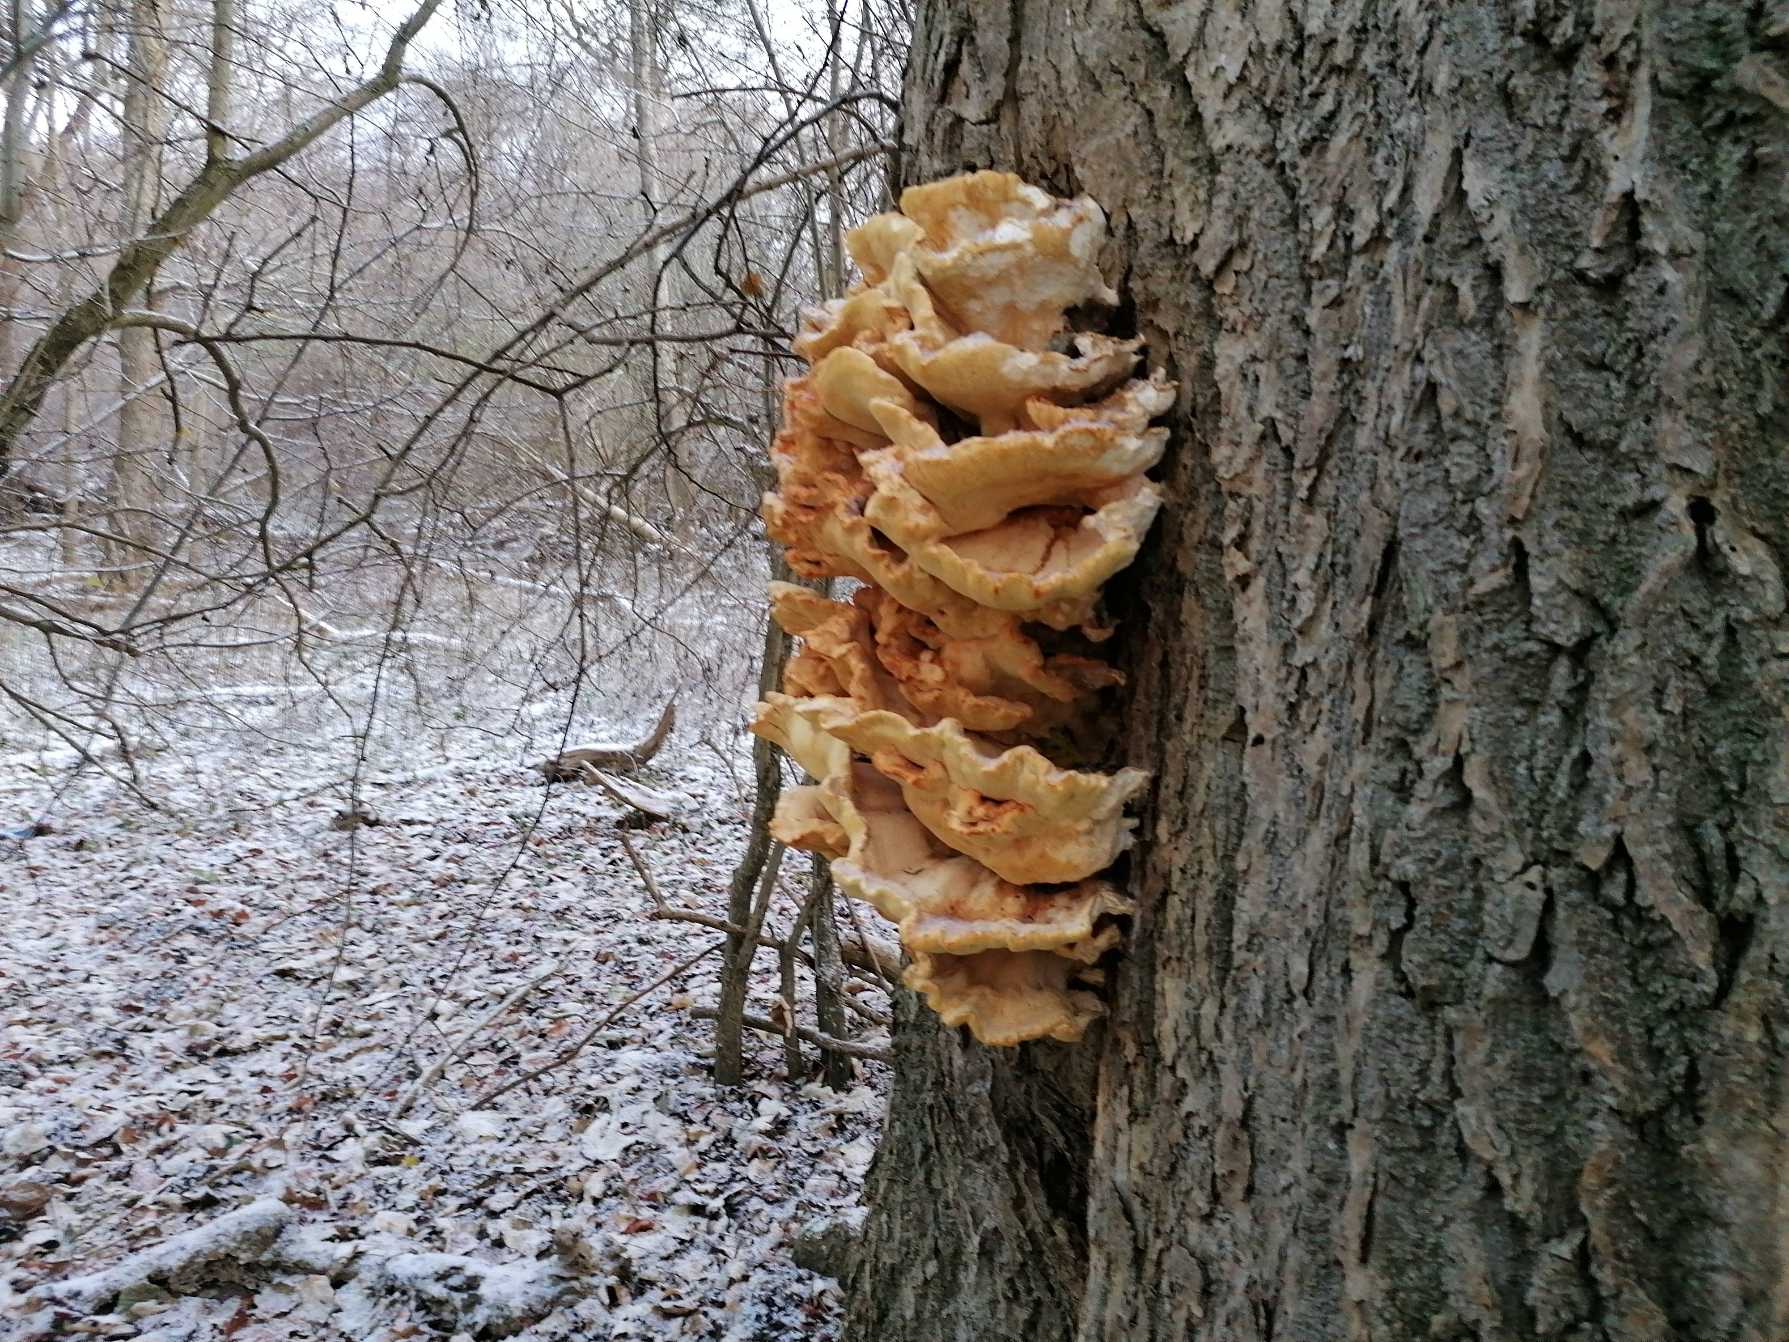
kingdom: Fungi
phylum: Basidiomycota
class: Agaricomycetes
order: Polyporales
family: Laetiporaceae
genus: Laetiporus
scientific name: Laetiporus sulphureus
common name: Svovlporesvamp
